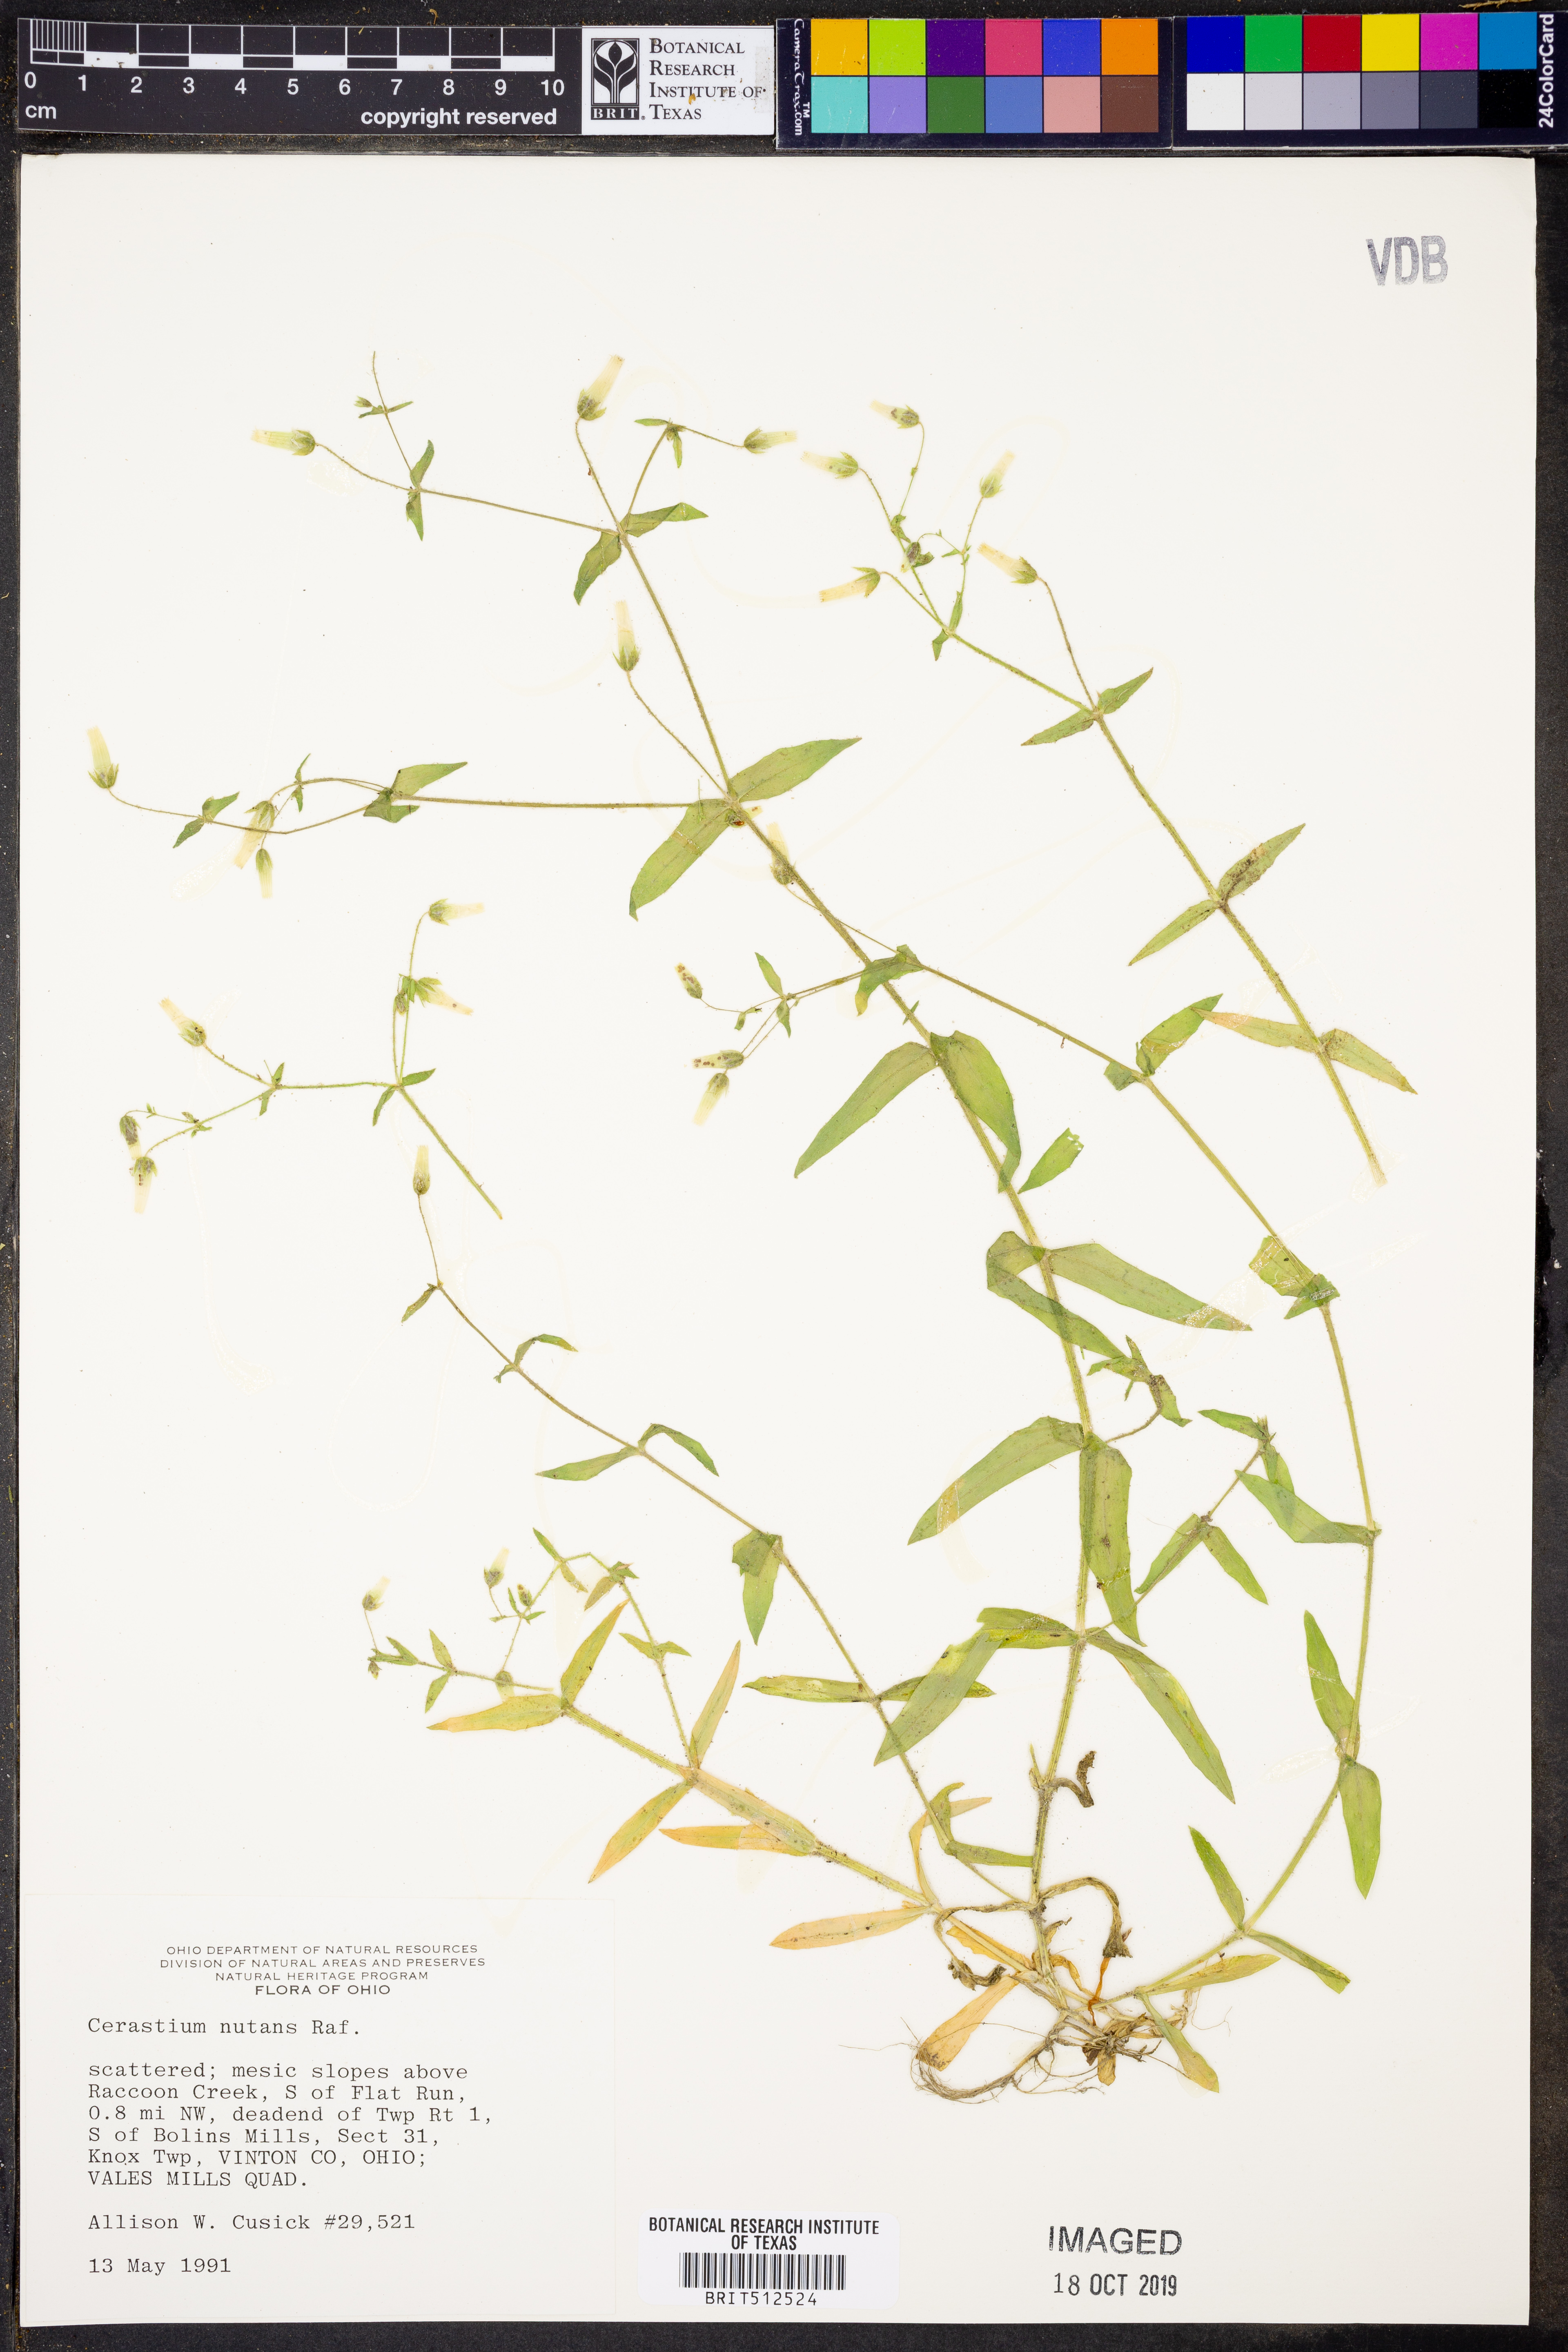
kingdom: Plantae
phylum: Tracheophyta
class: Magnoliopsida
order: Caryophyllales
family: Caryophyllaceae
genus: Cerastium
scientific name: Cerastium nutans
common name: Long-stalked chickweed
